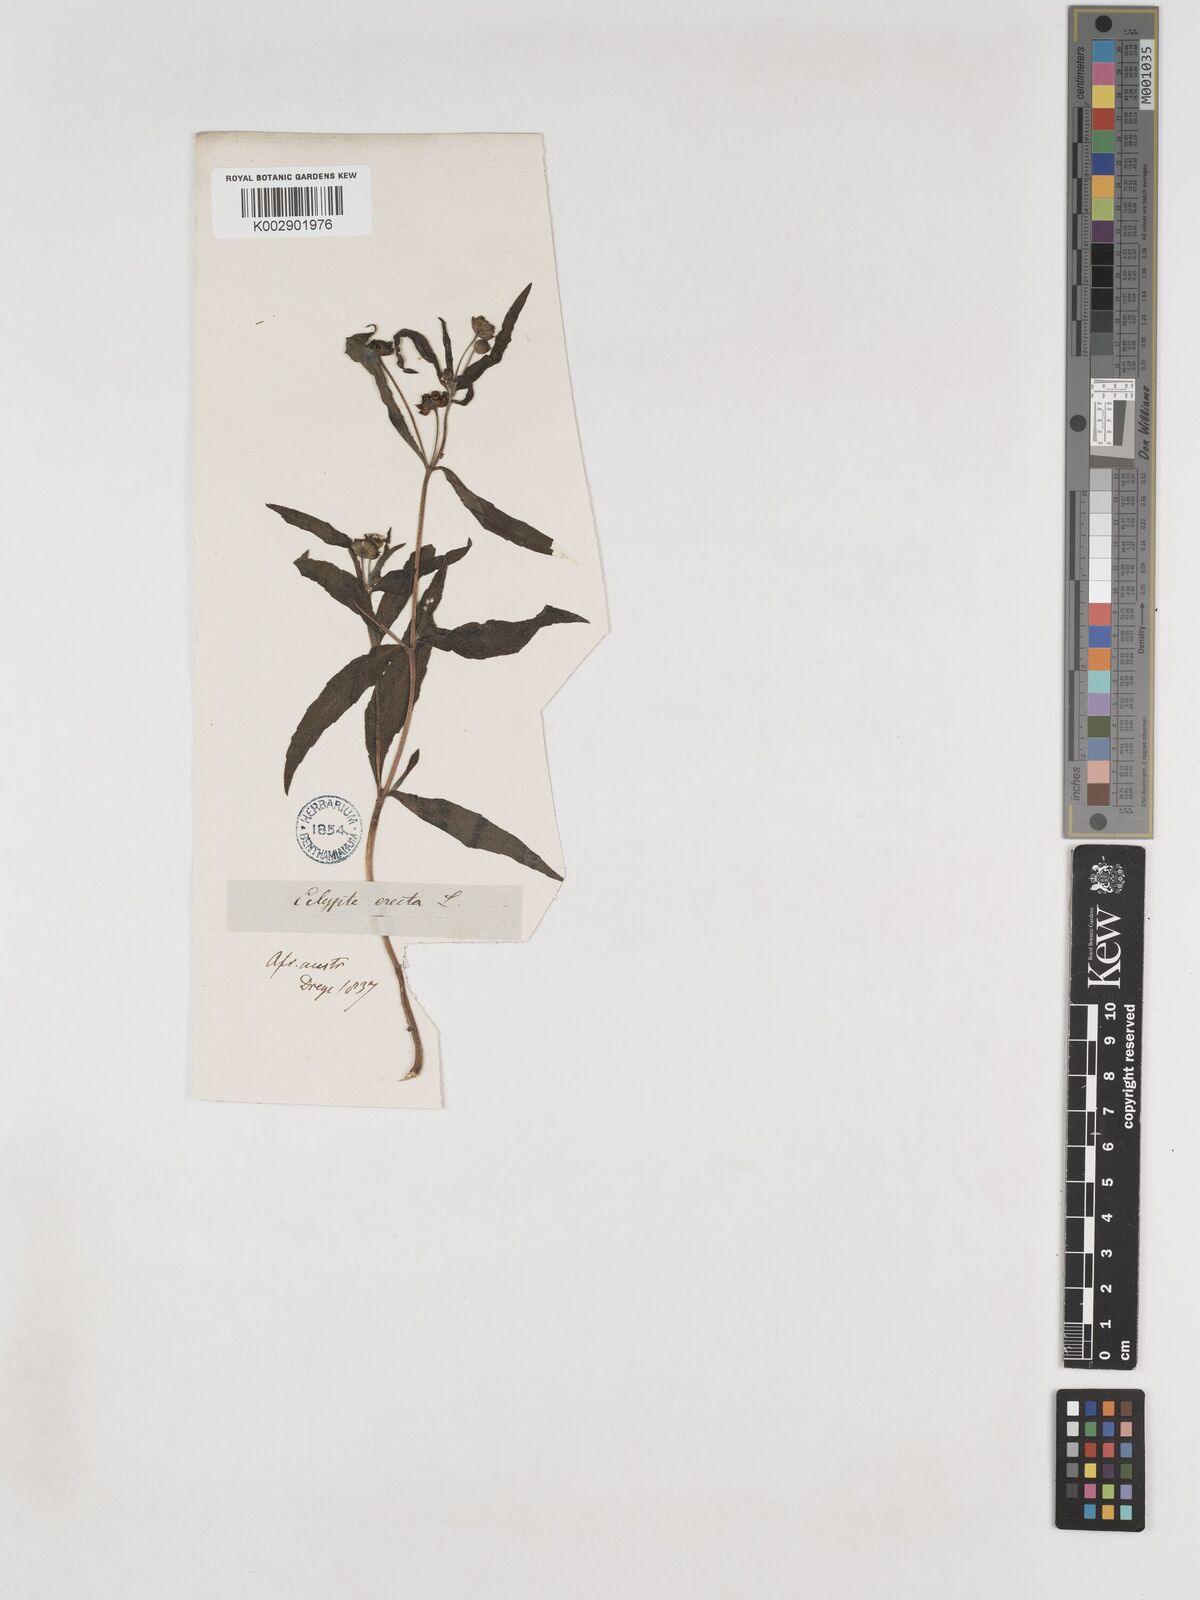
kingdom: Plantae
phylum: Tracheophyta
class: Magnoliopsida
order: Asterales
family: Asteraceae
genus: Eclipta
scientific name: Eclipta alba
